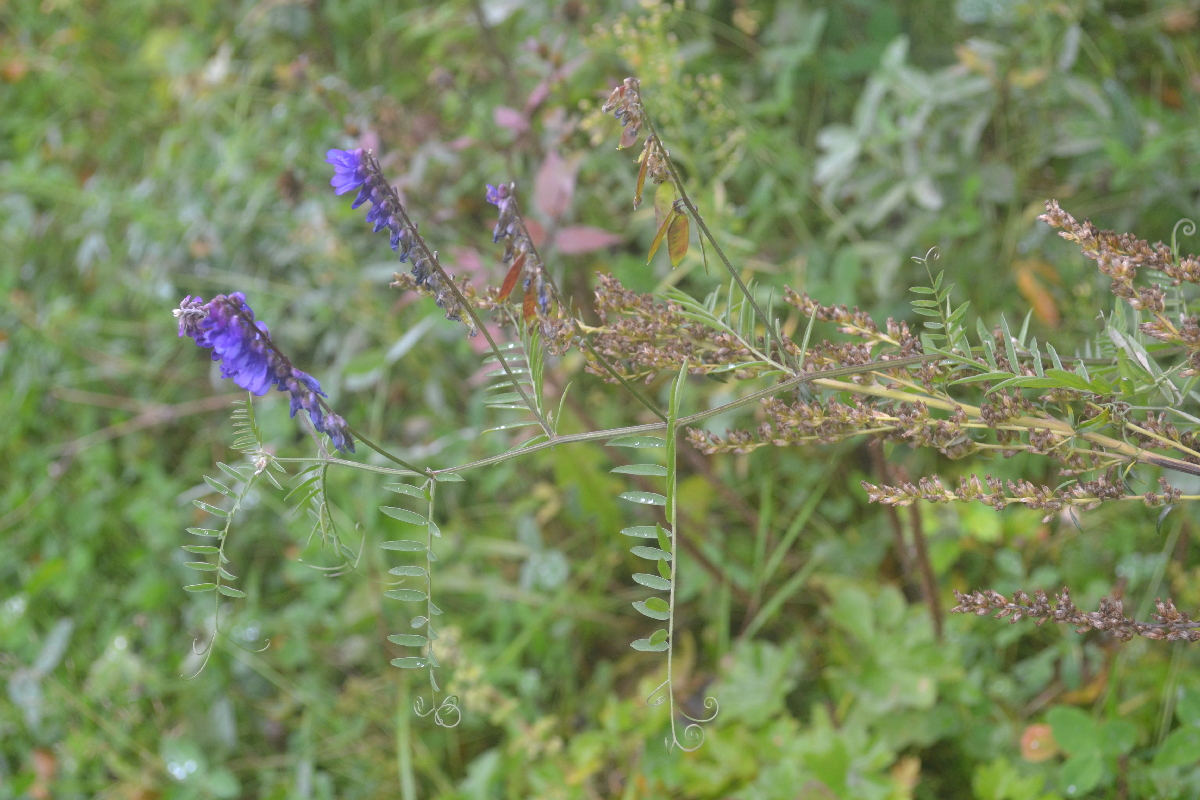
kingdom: Plantae
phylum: Tracheophyta
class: Magnoliopsida
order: Fabales
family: Fabaceae
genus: Vicia
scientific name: Vicia cracca
